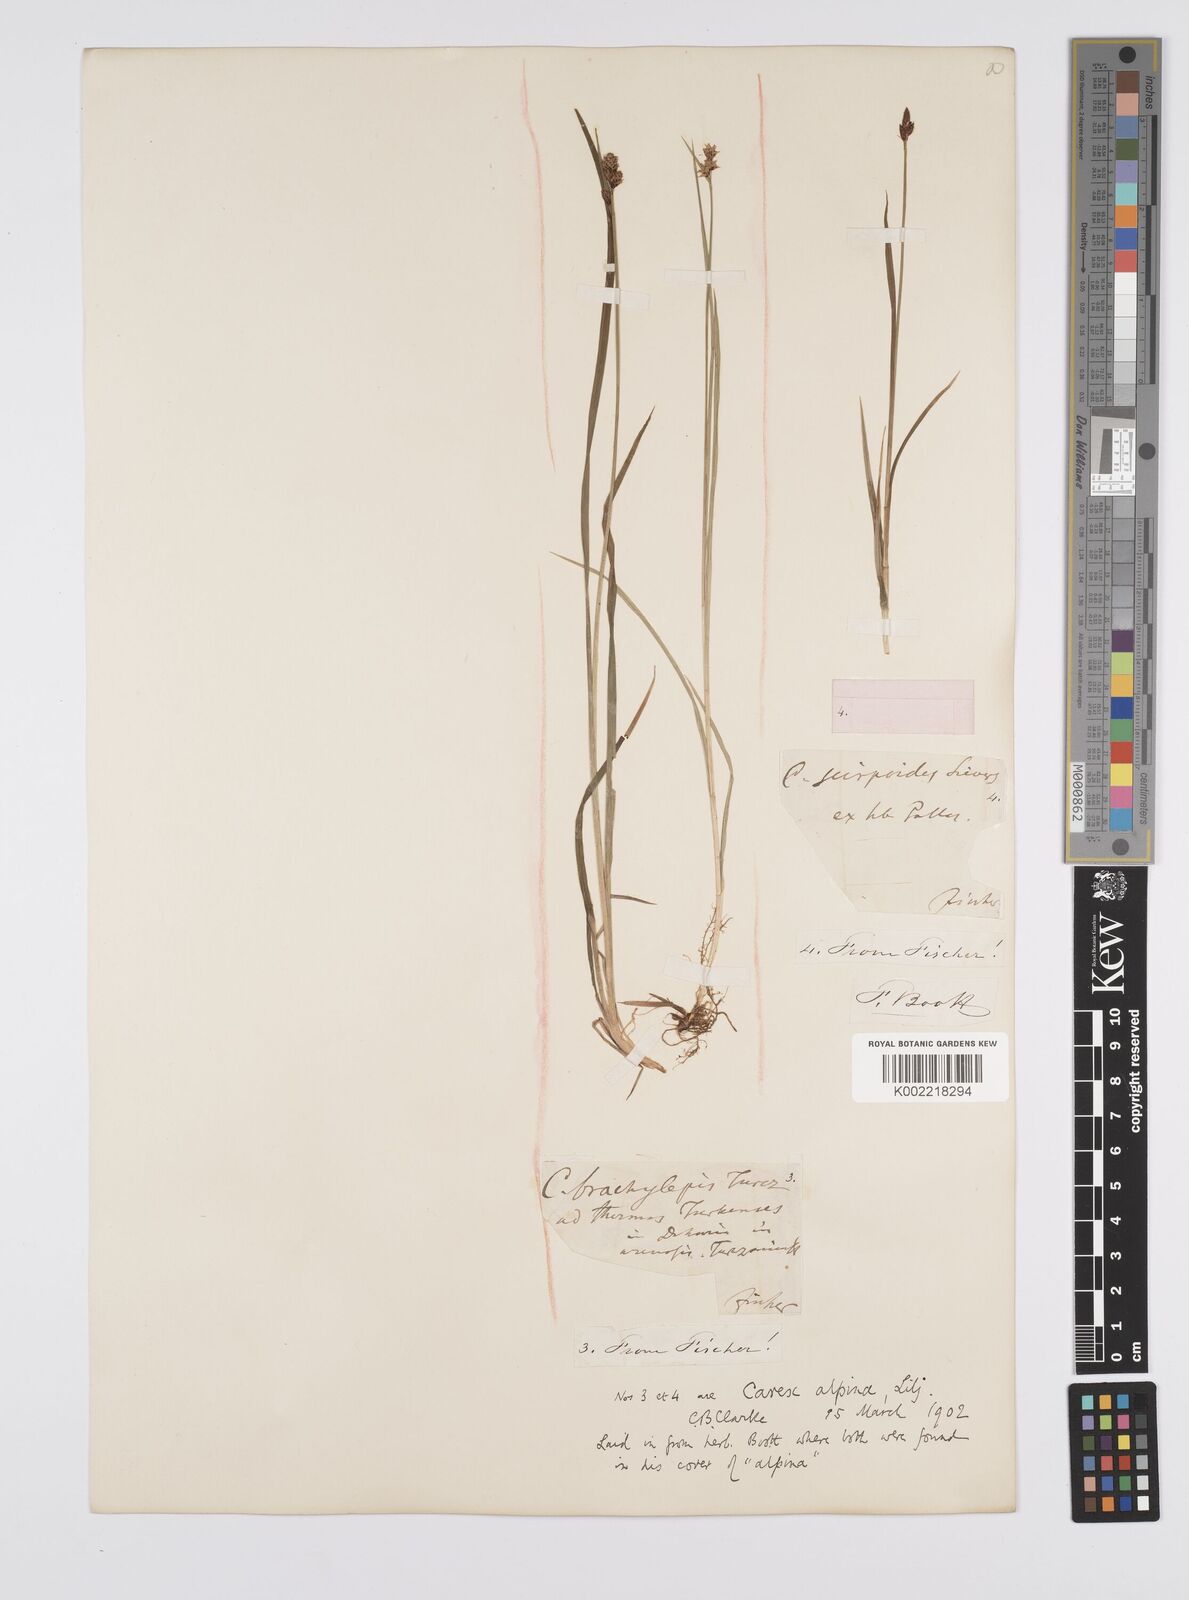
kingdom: Plantae
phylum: Tracheophyta
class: Liliopsida
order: Poales
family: Cyperaceae
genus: Carex
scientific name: Carex nigra
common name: Common sedge
